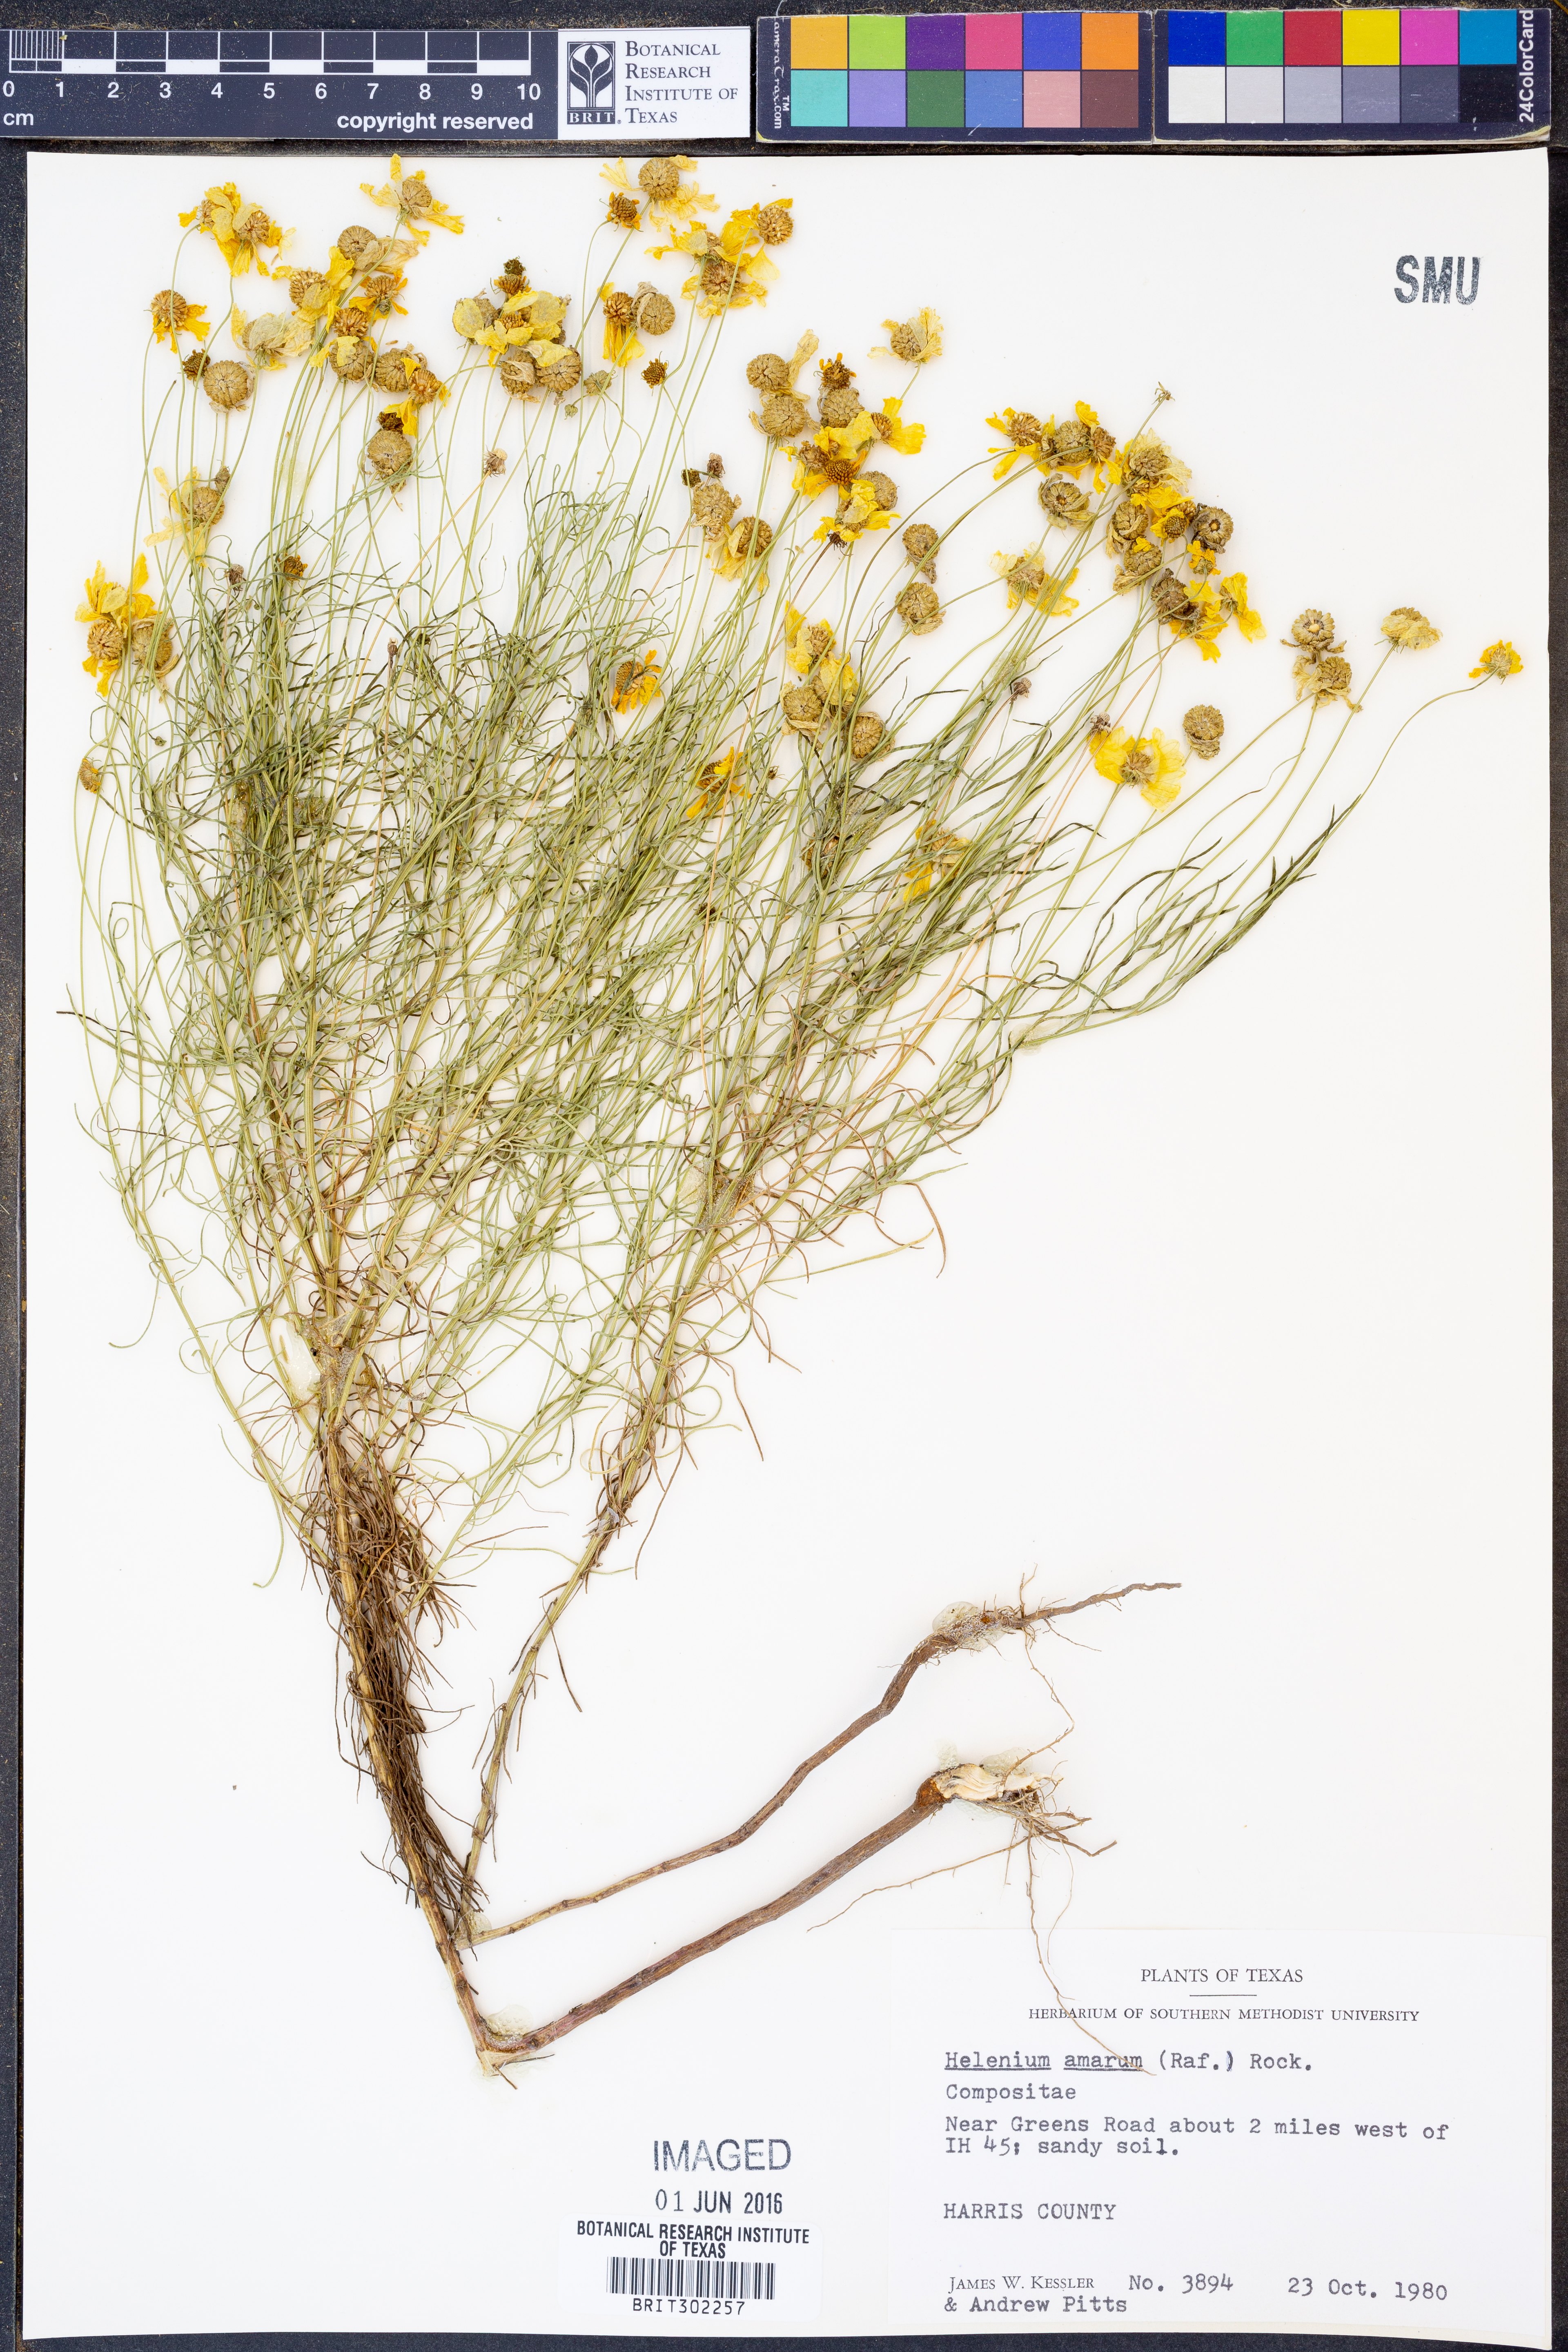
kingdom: Plantae
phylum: Tracheophyta
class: Magnoliopsida
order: Asterales
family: Asteraceae
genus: Helenium
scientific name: Helenium amarum
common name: Bitter sneezeweed
